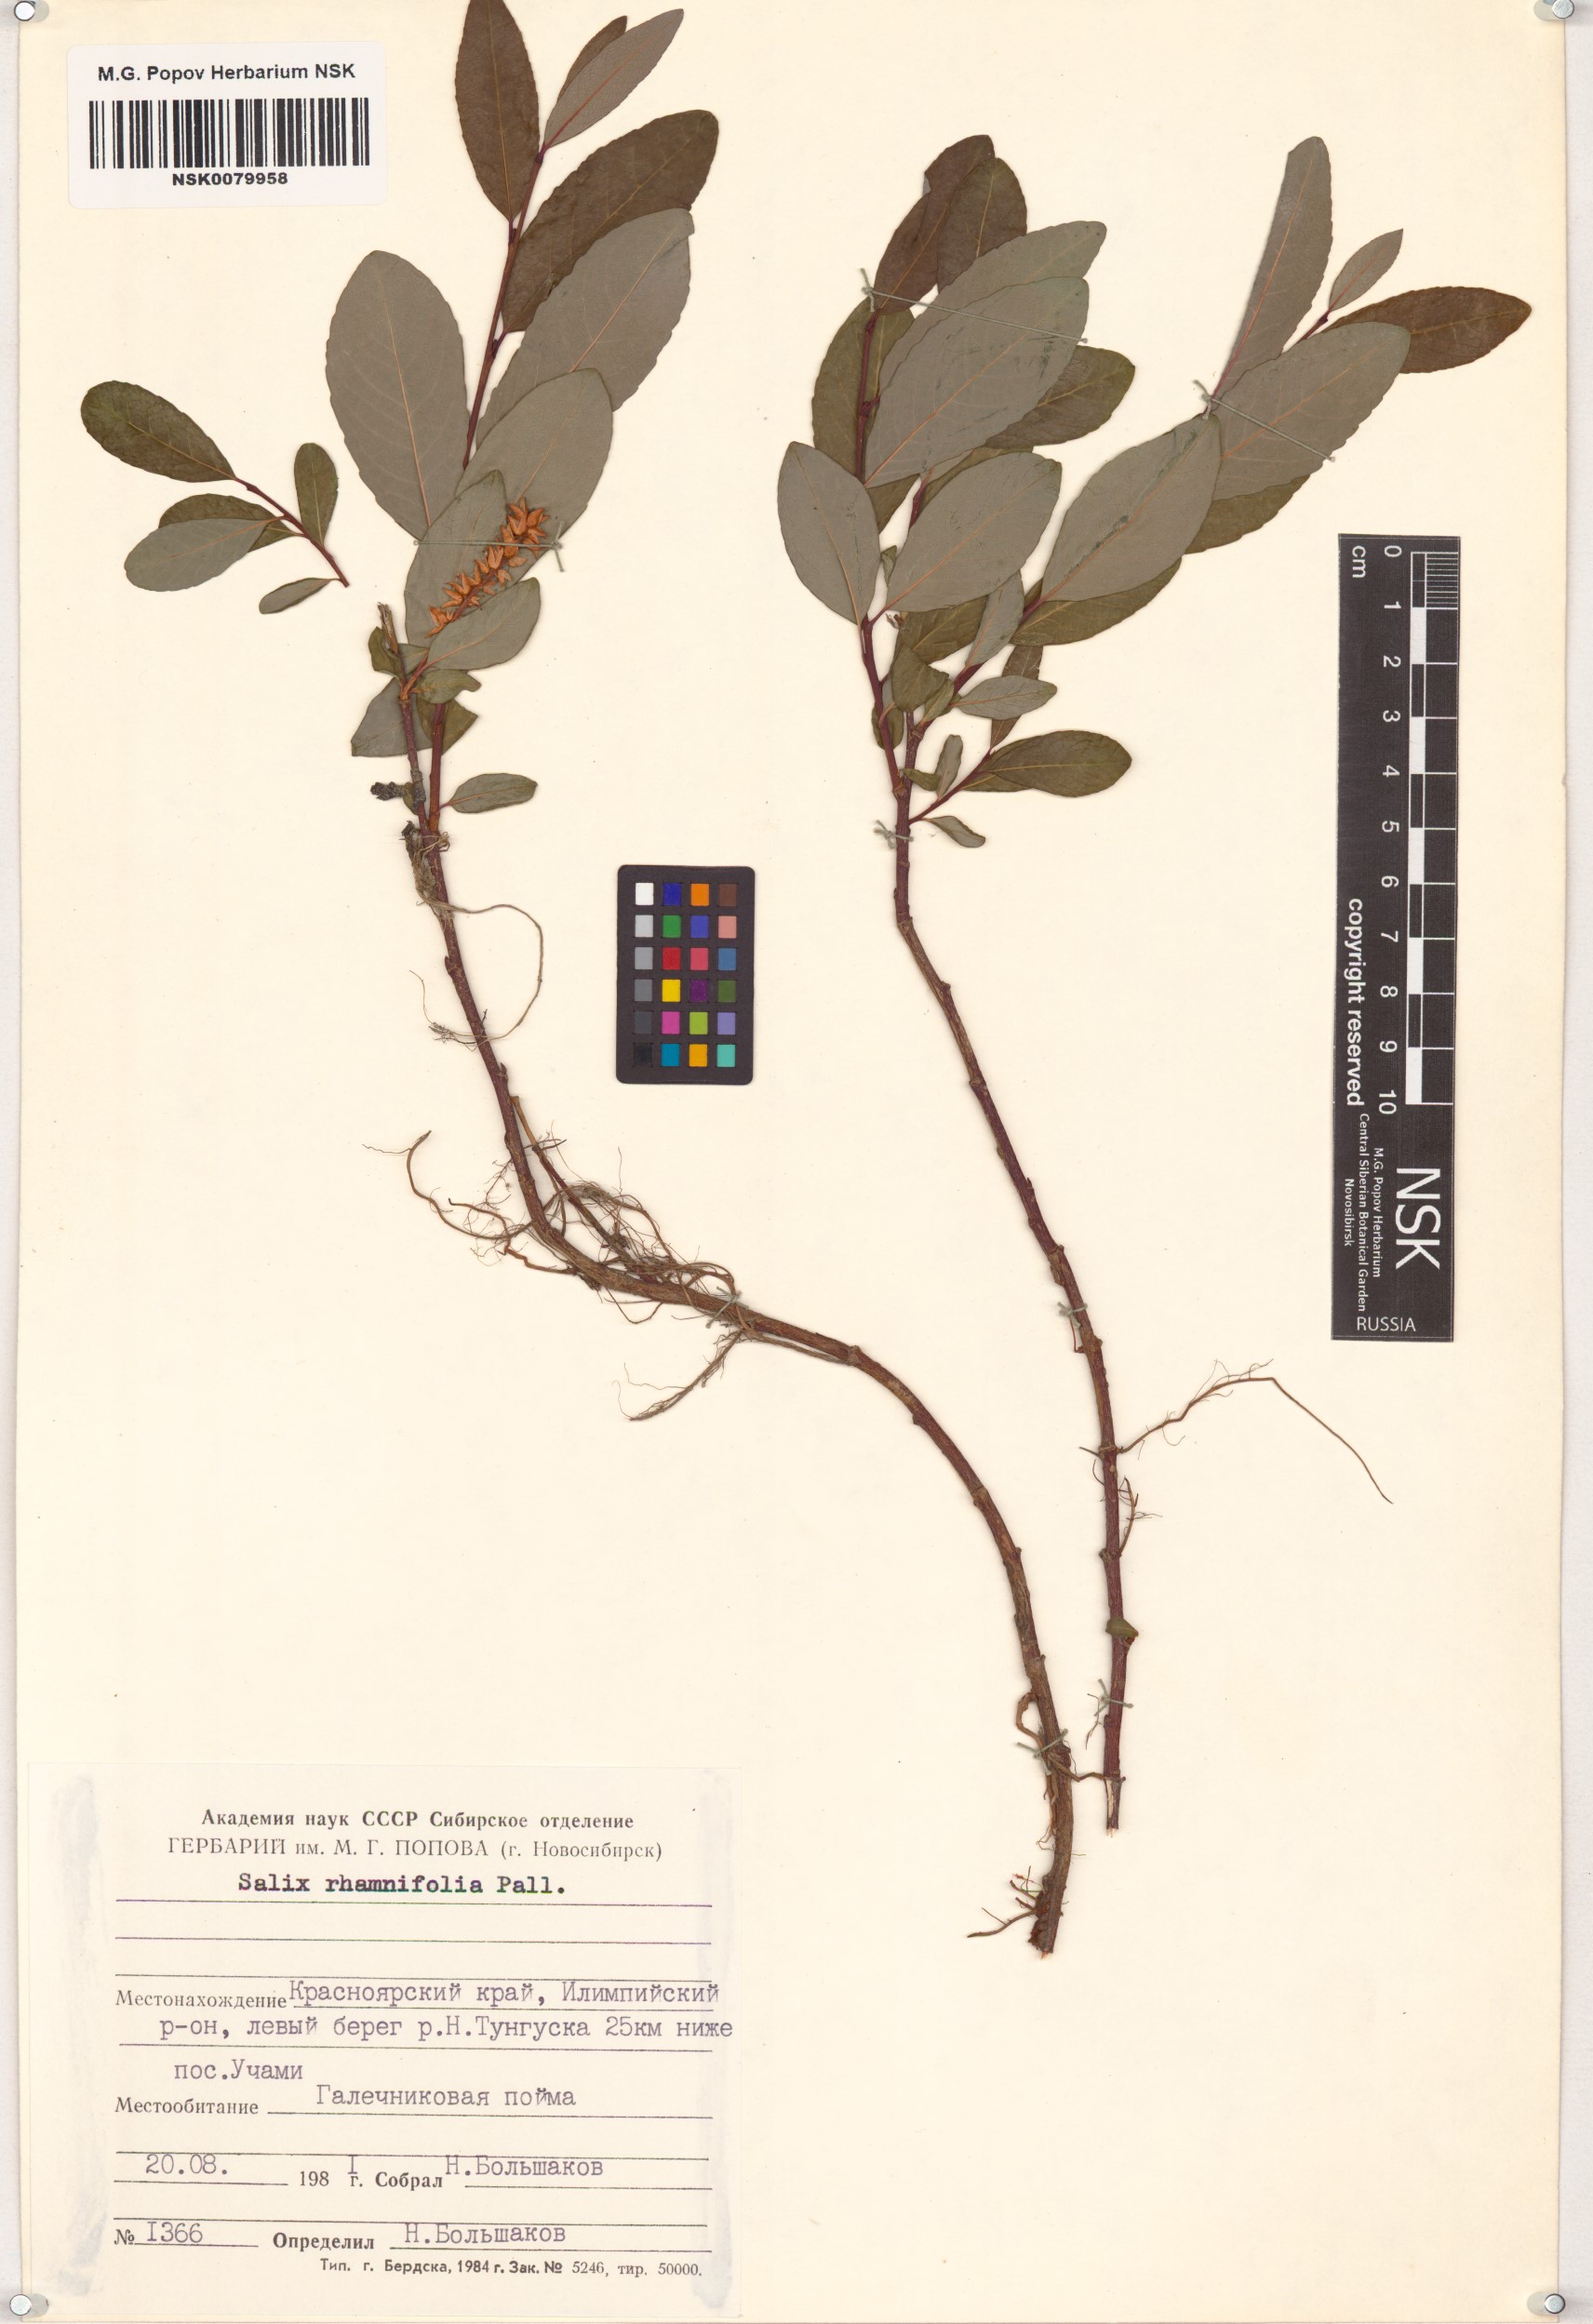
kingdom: Plantae
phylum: Tracheophyta
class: Magnoliopsida
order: Malpighiales
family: Salicaceae
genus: Salix
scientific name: Salix rhamnifolia
